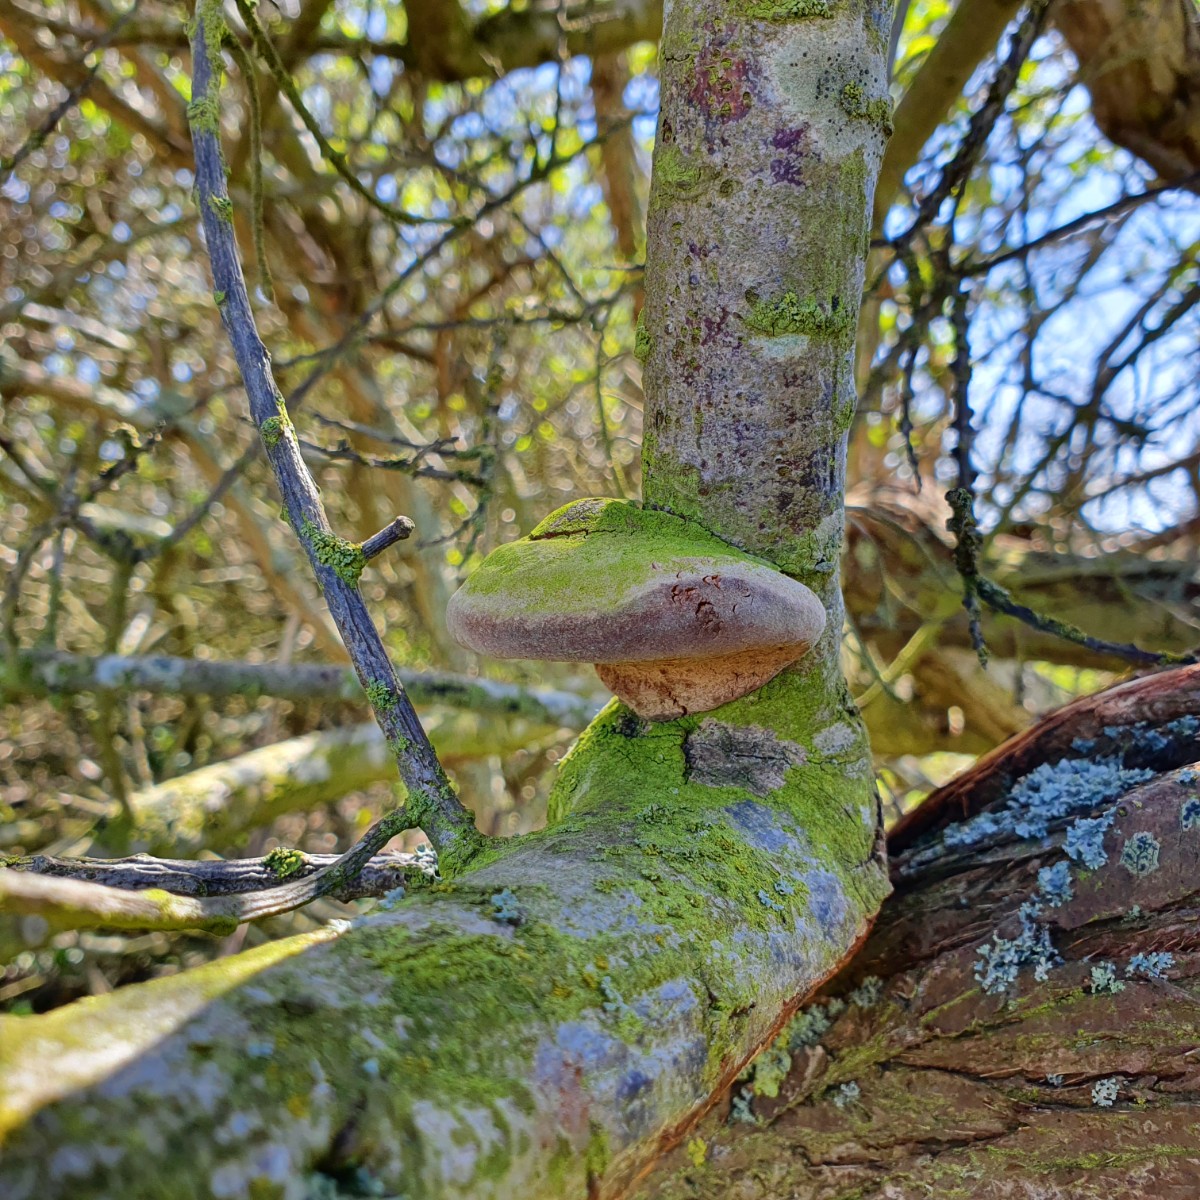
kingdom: Fungi
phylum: Basidiomycota
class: Agaricomycetes
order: Hymenochaetales
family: Hymenochaetaceae
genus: Fomitiporia
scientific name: Fomitiporia hippophaeicola
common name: havtorn-ildporesvamp
